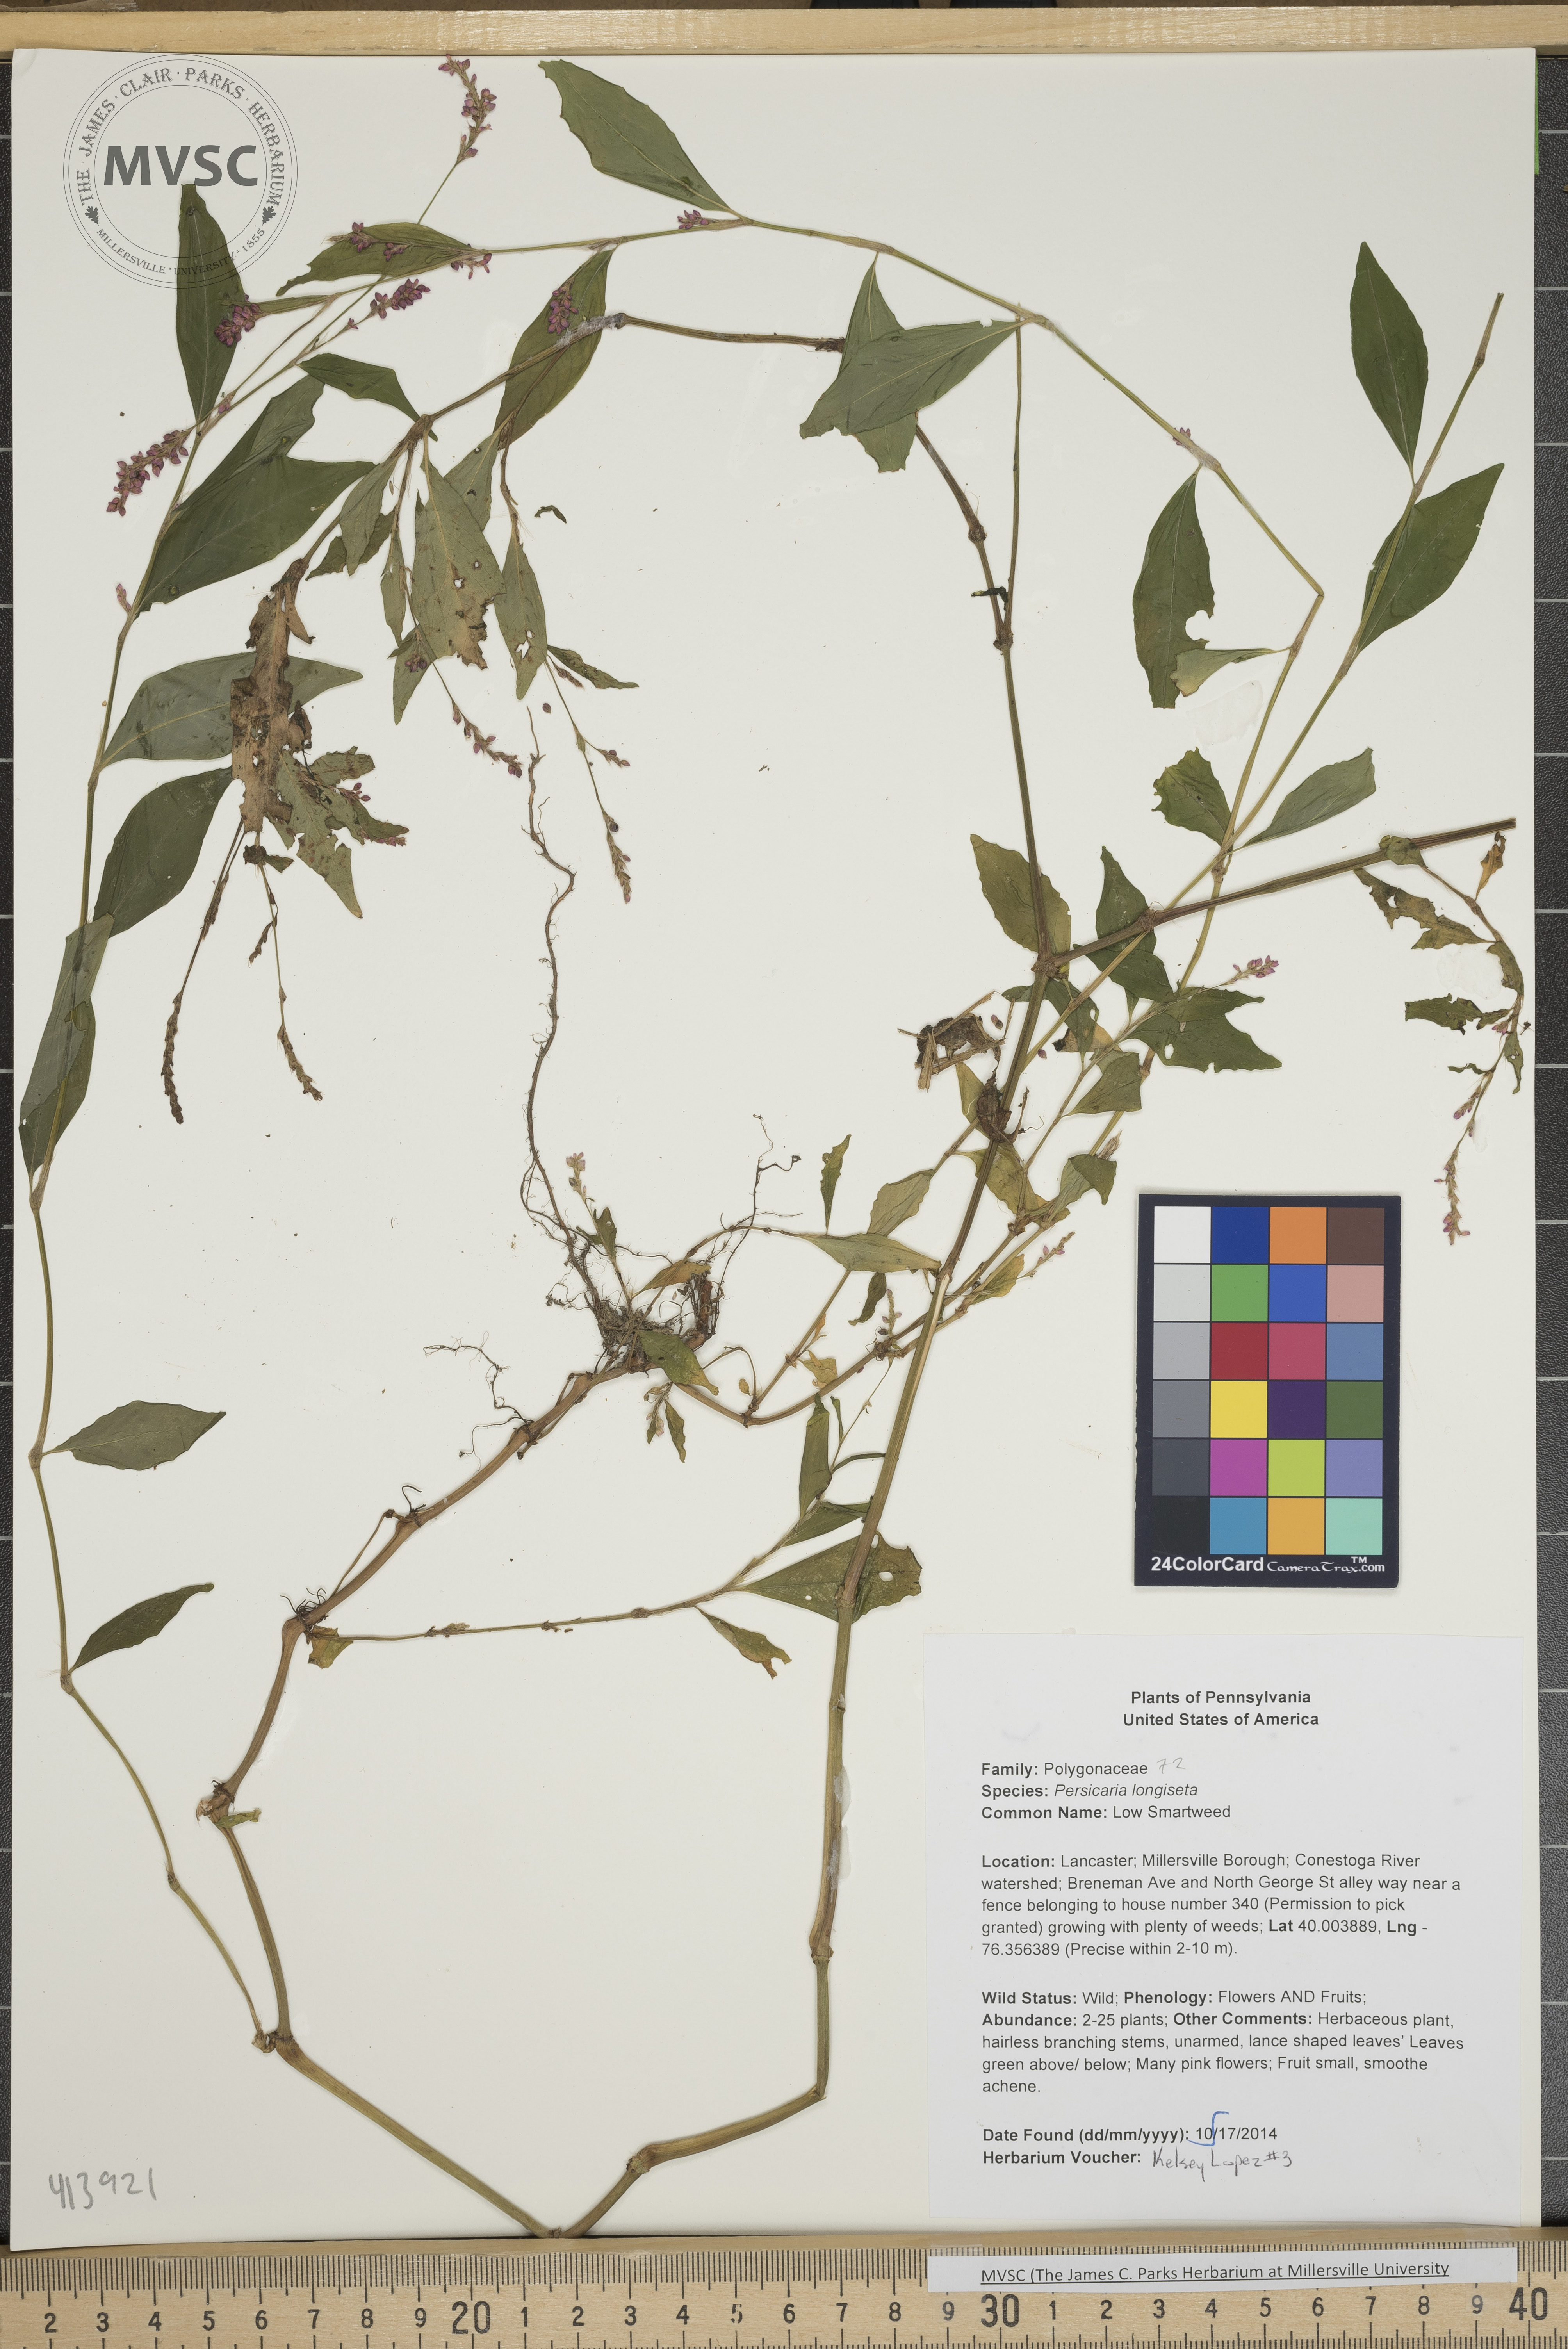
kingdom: Plantae
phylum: Tracheophyta
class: Magnoliopsida
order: Caryophyllales
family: Polygonaceae
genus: Persicaria
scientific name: Persicaria longiseta
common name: Low smartweed
